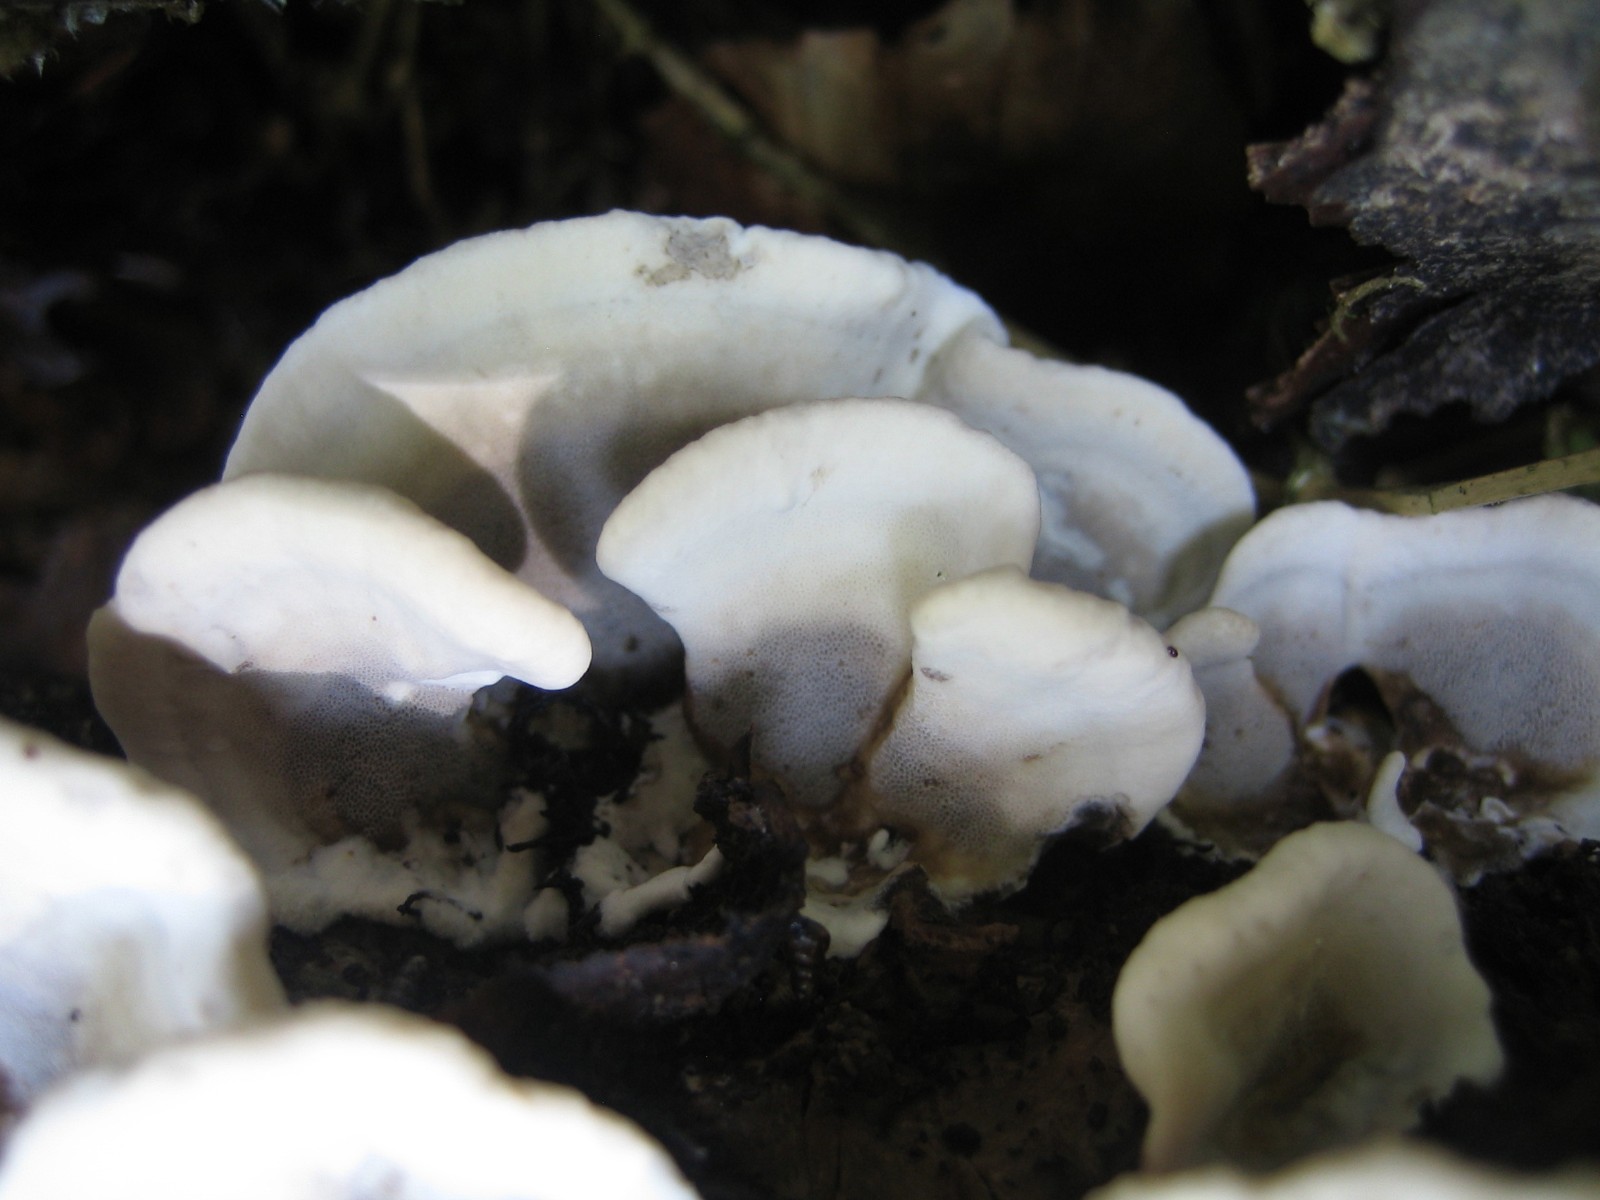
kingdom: Fungi
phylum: Basidiomycota
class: Agaricomycetes
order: Polyporales
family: Phanerochaetaceae
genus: Bjerkandera
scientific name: Bjerkandera adusta
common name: sveden sodporesvamp
